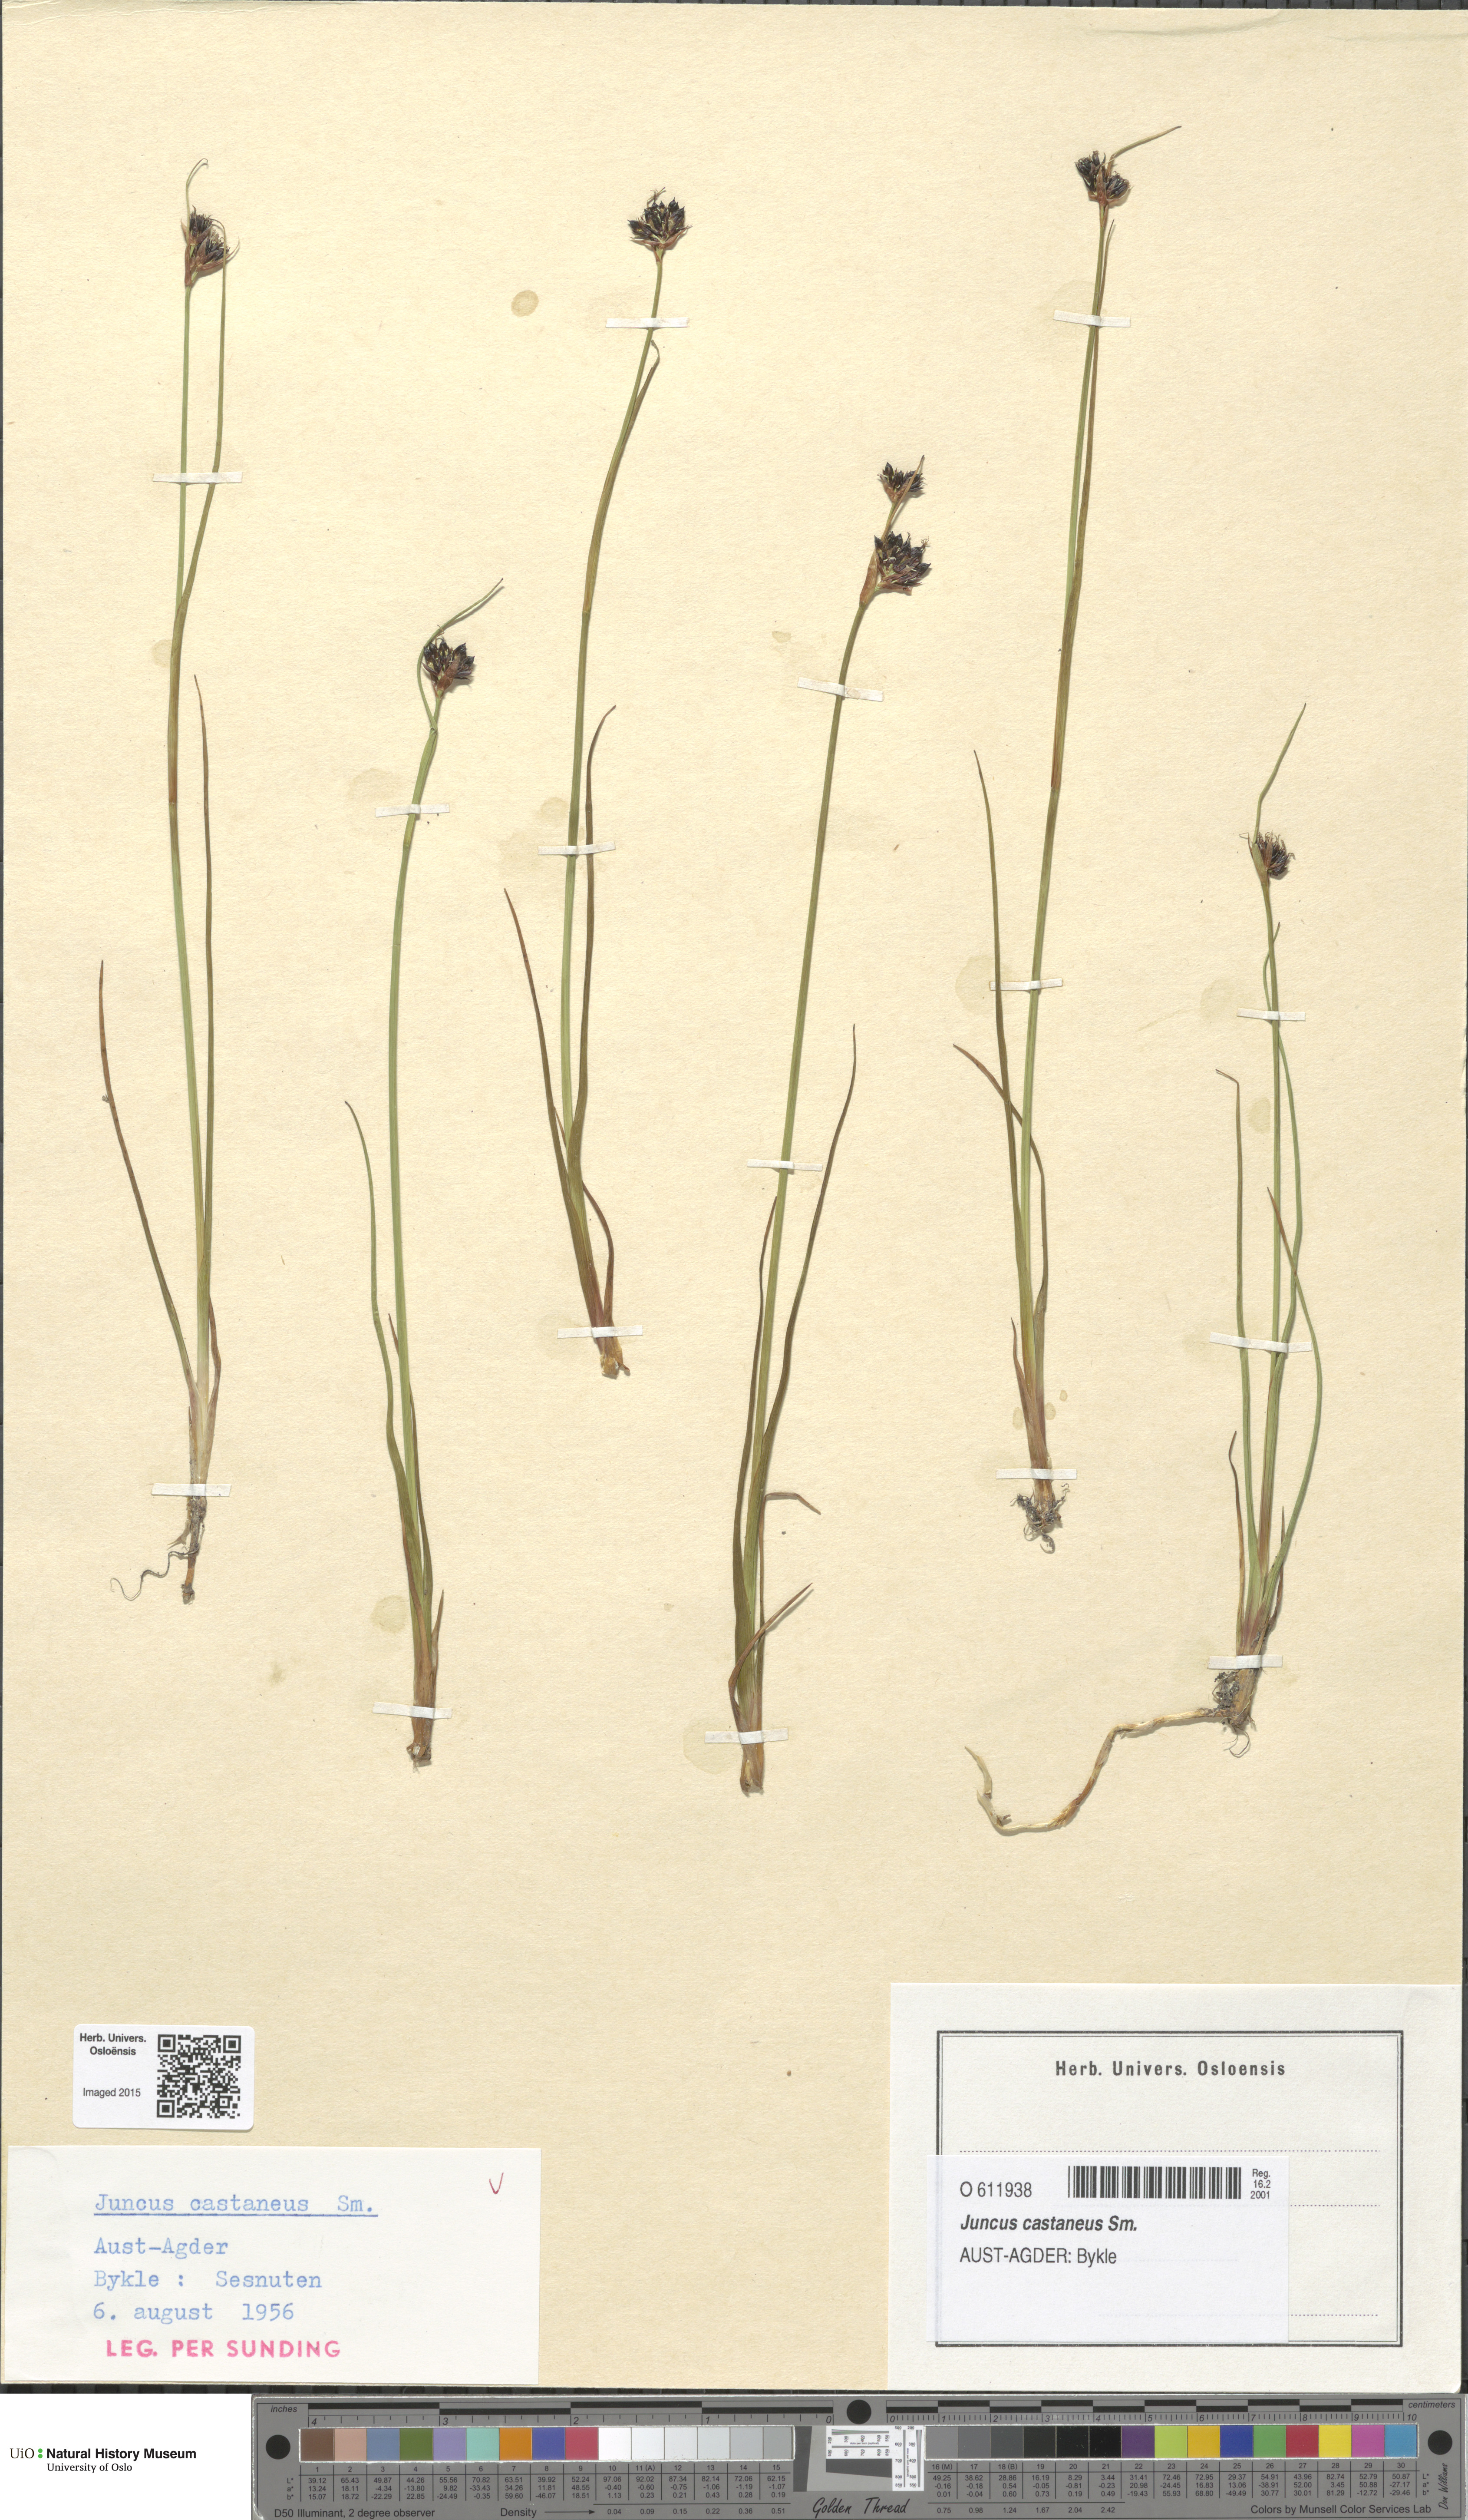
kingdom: Plantae
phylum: Tracheophyta
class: Liliopsida
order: Poales
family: Juncaceae
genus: Juncus
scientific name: Juncus castaneus
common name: Chestnut rush
